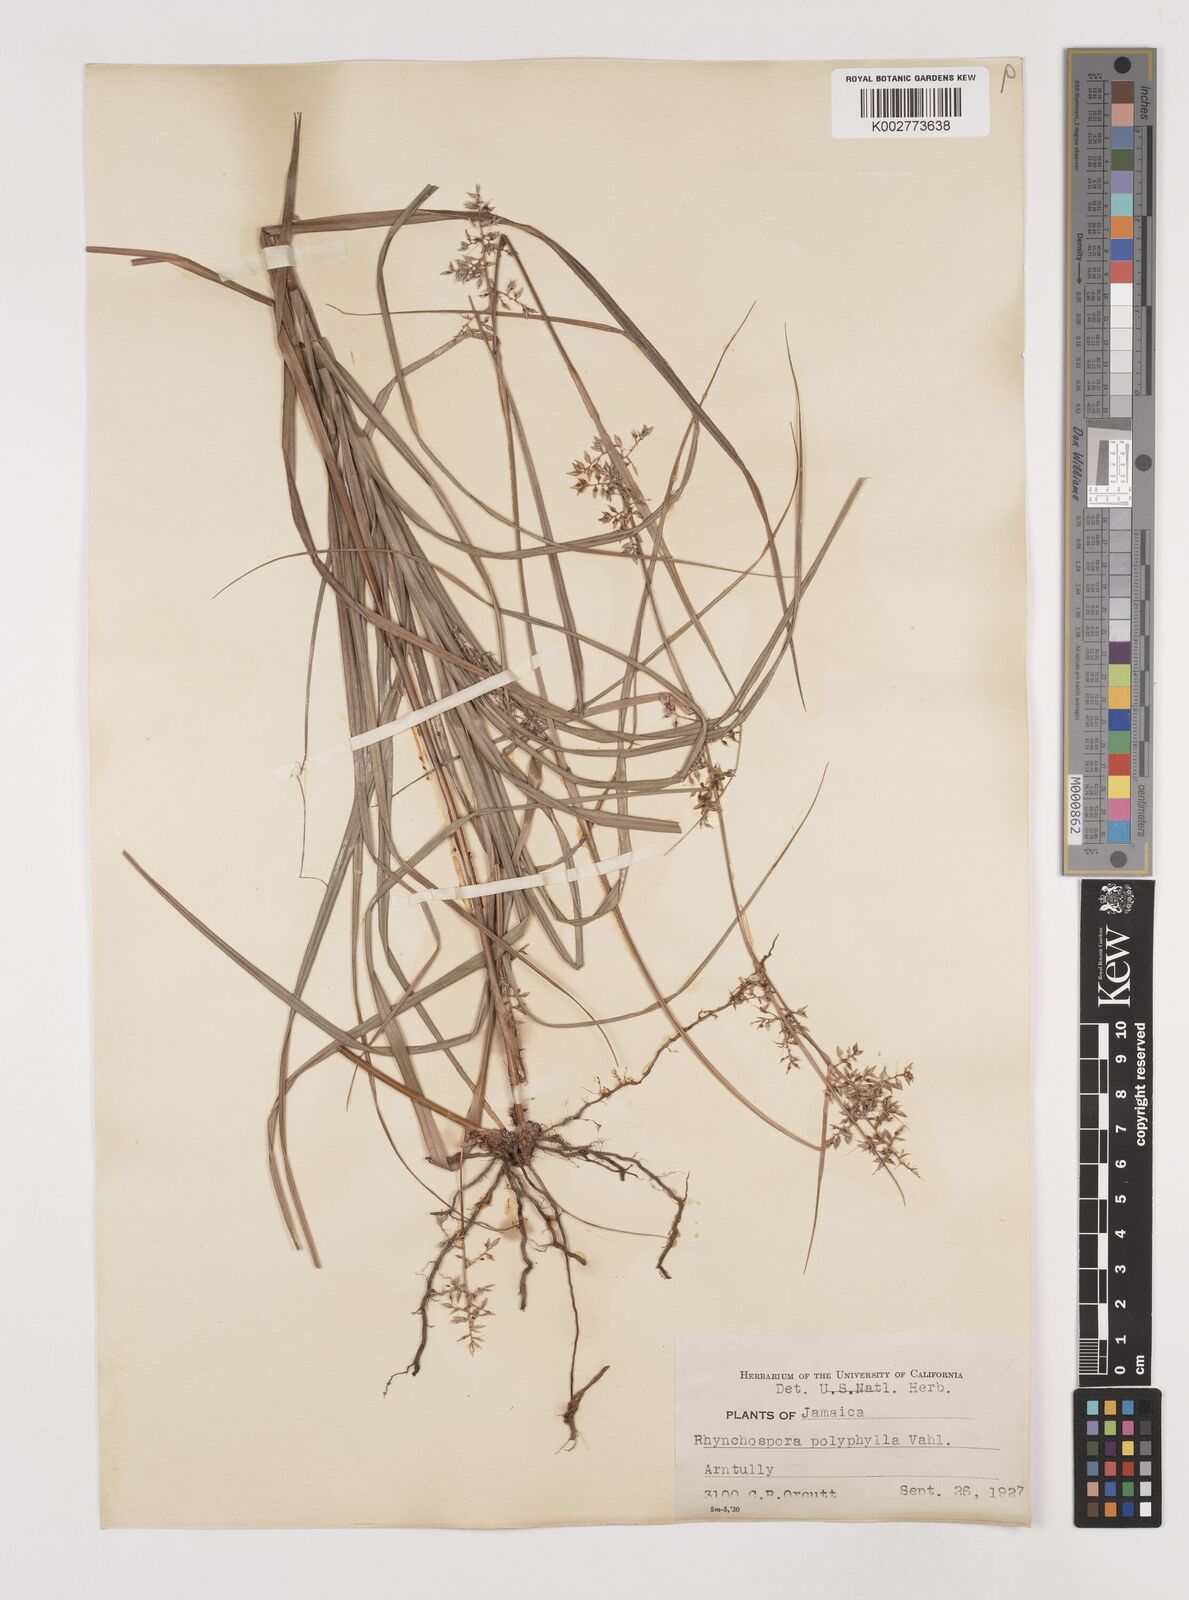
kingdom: Plantae
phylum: Tracheophyta
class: Liliopsida
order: Poales
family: Cyperaceae
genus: Rhynchospora
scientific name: Rhynchospora polyphylla
